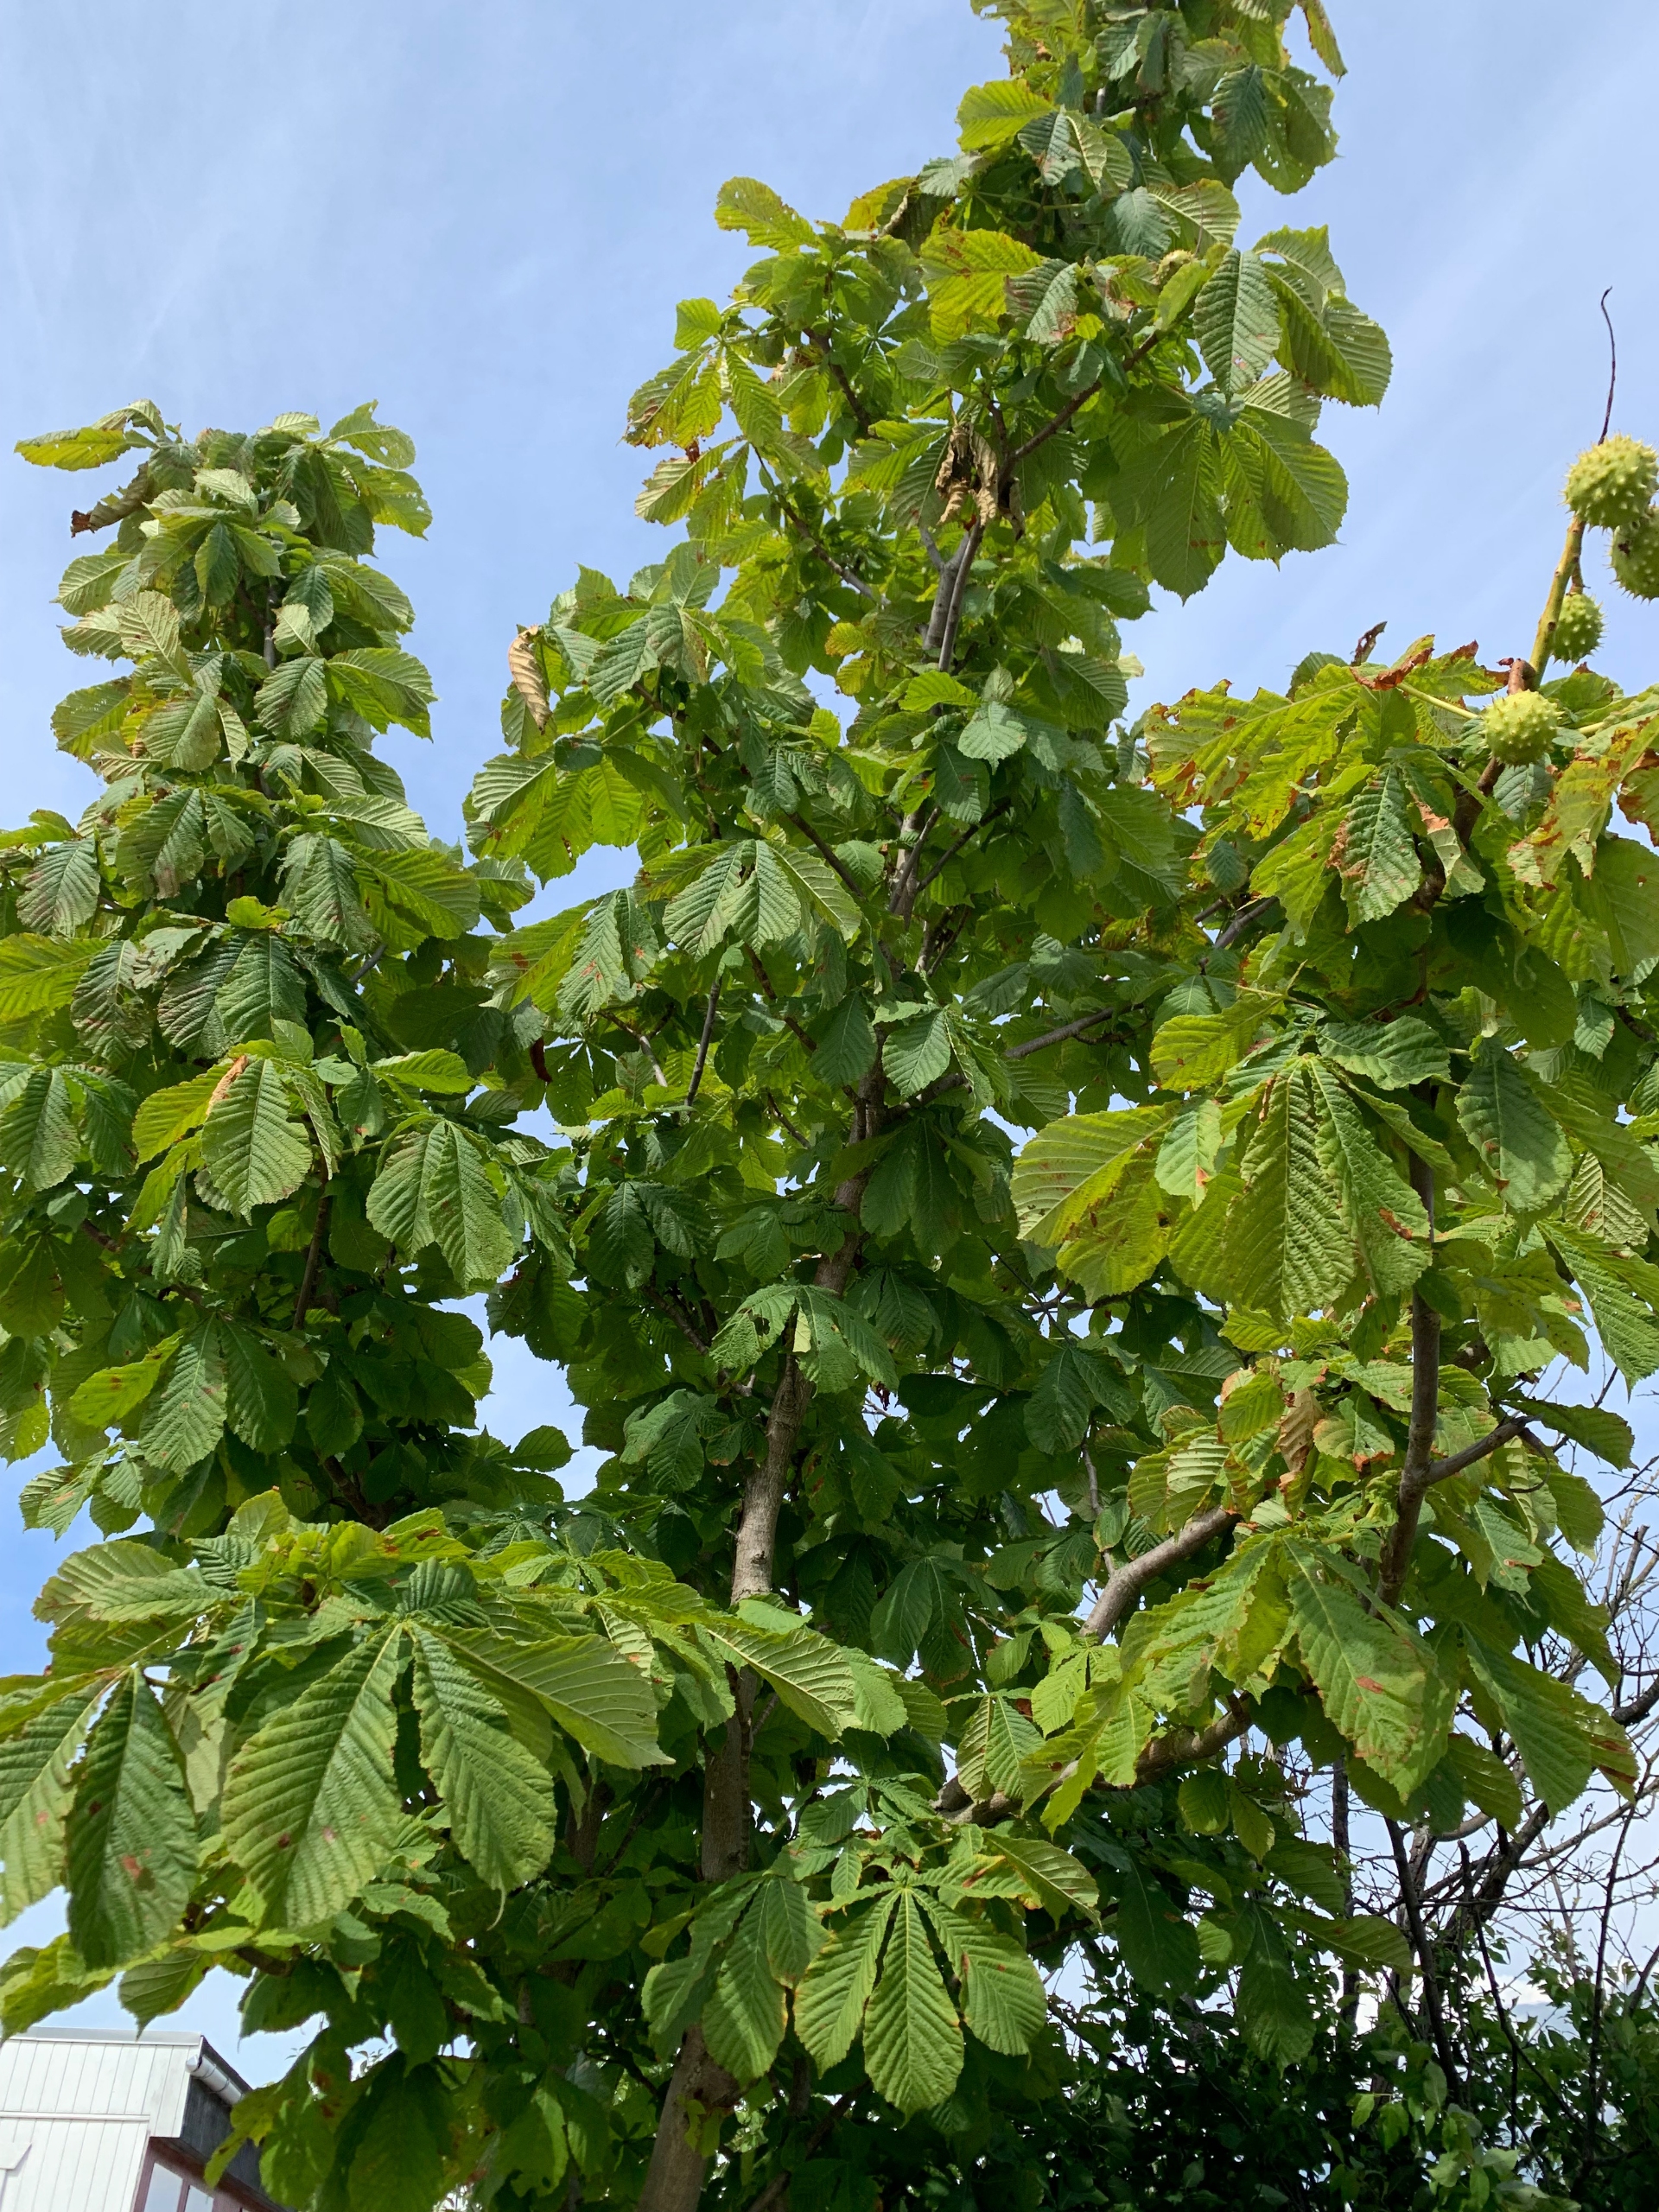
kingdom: Plantae
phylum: Tracheophyta
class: Magnoliopsida
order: Sapindales
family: Sapindaceae
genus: Aesculus
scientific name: Aesculus hippocastanum
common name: Hestekastanie
